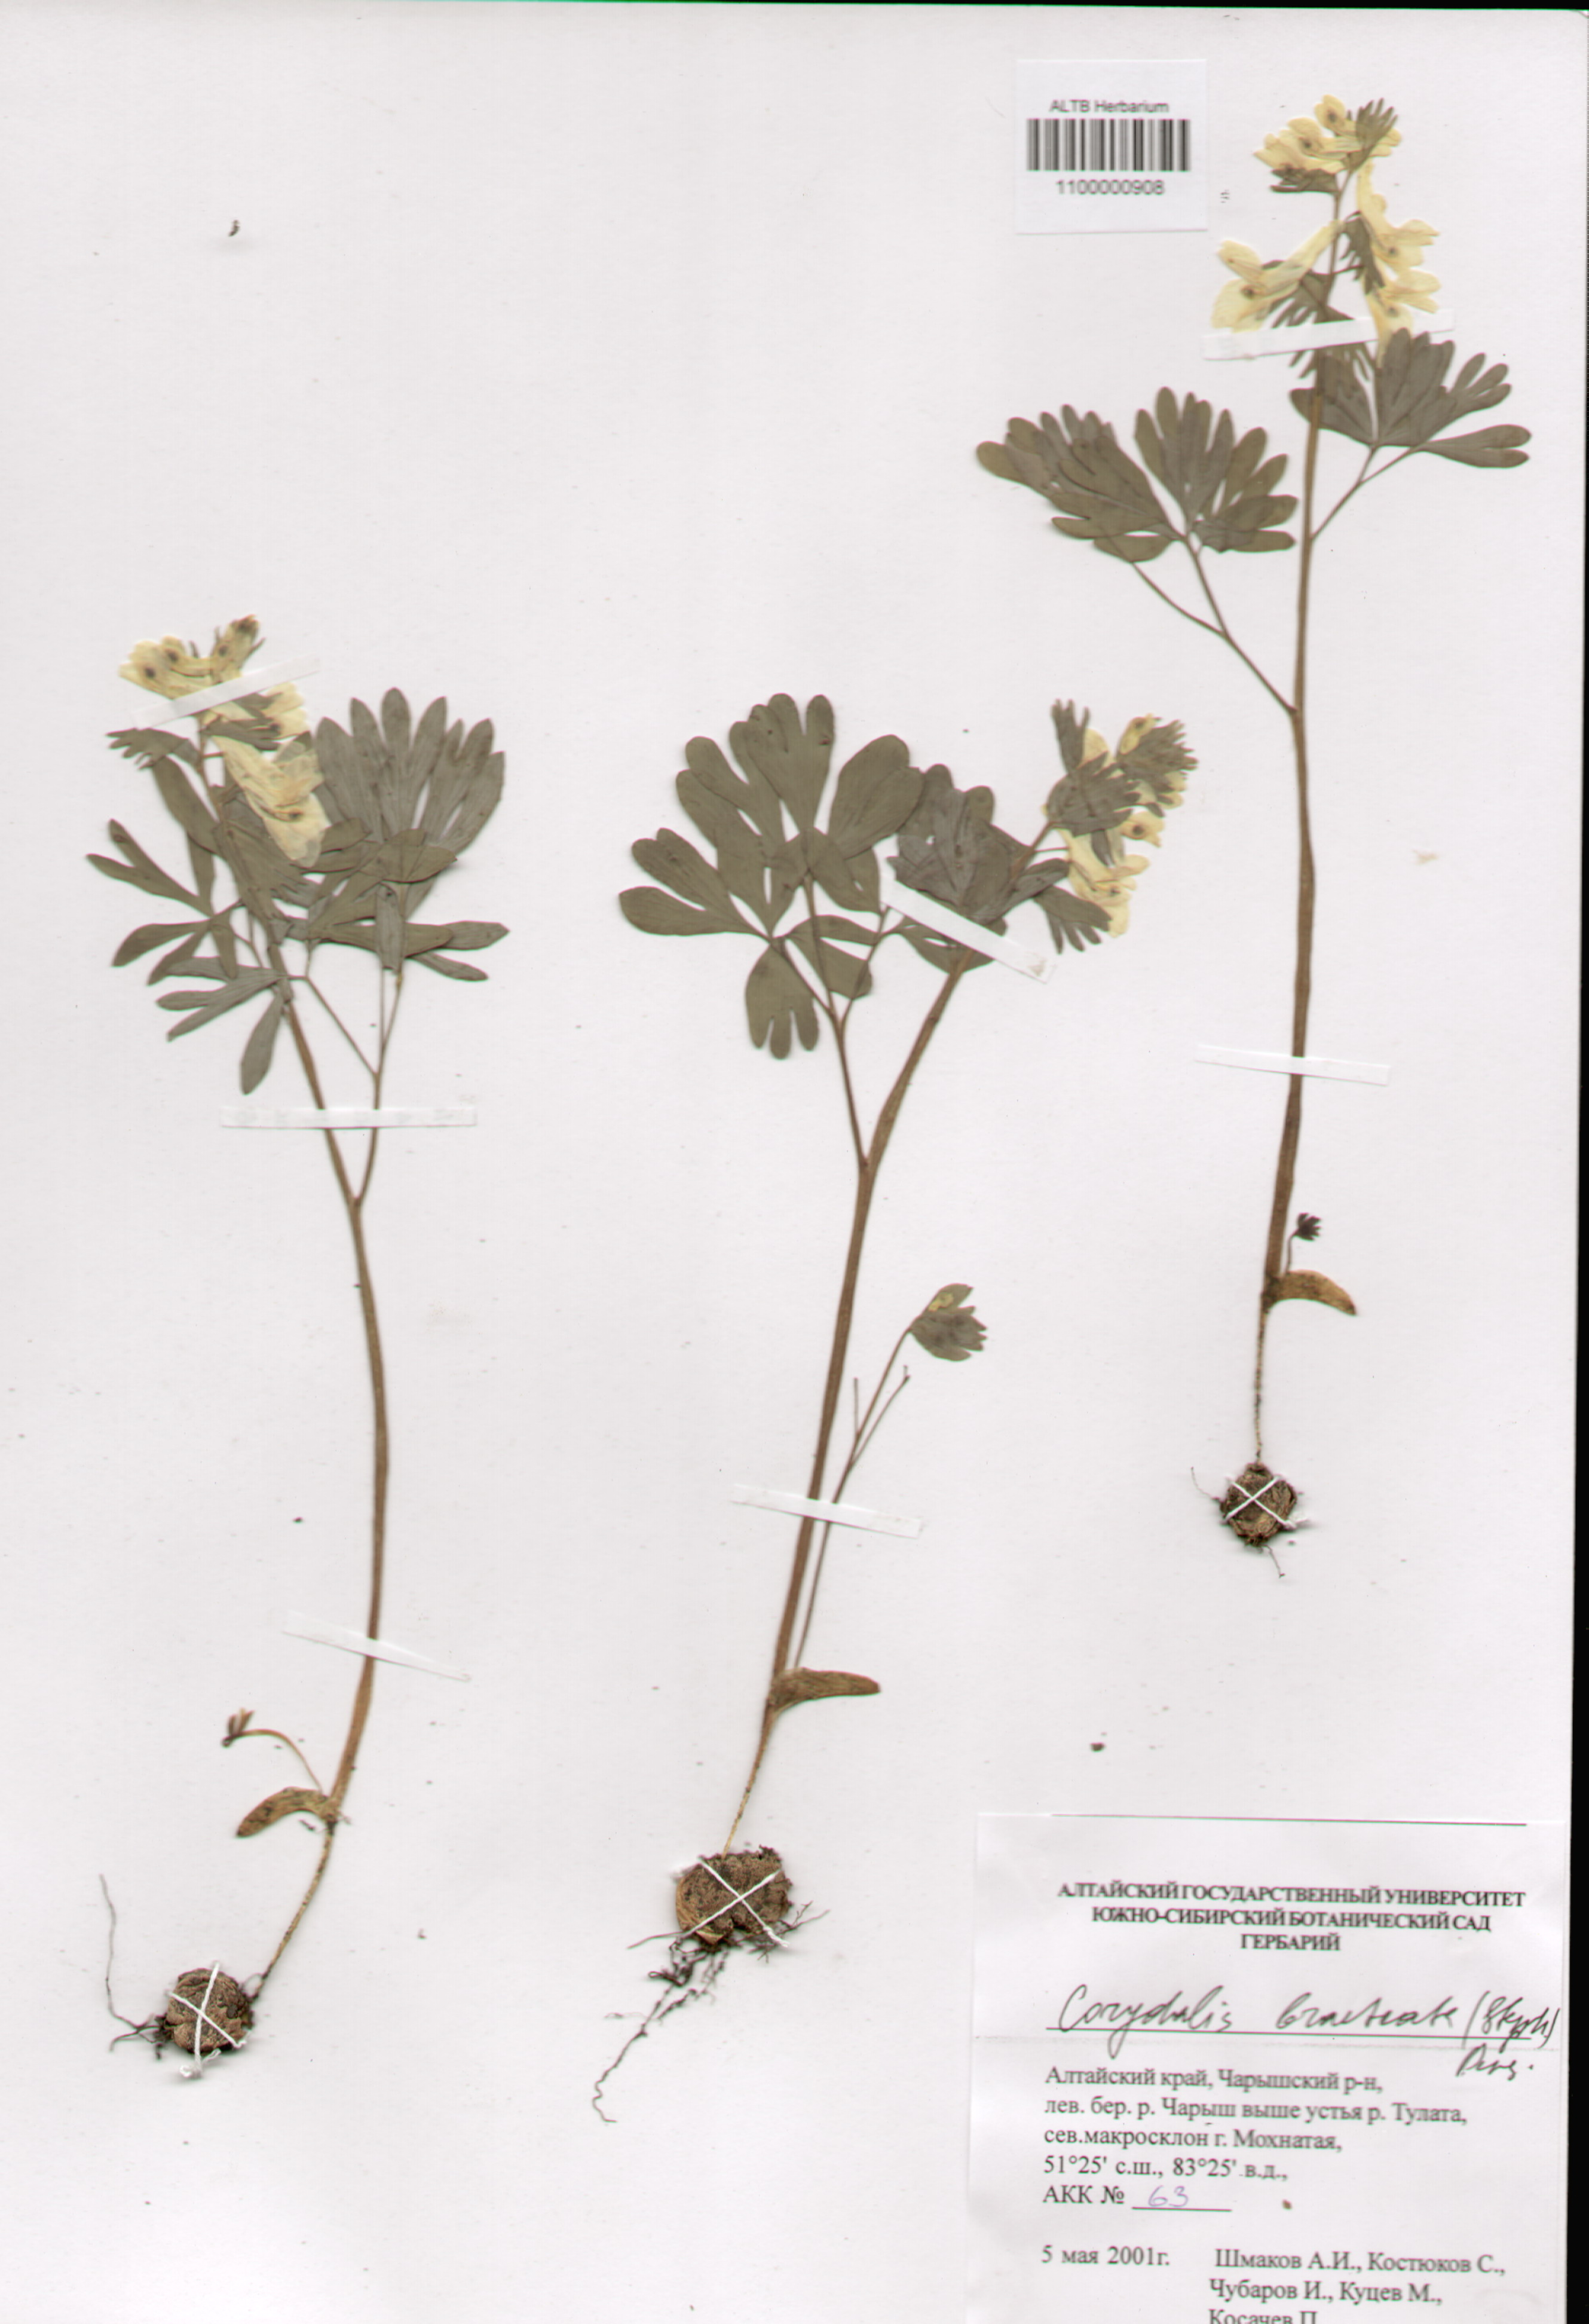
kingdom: Plantae
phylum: Tracheophyta
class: Magnoliopsida
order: Ranunculales
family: Papaveraceae
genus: Corydalis
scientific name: Corydalis bracteata
